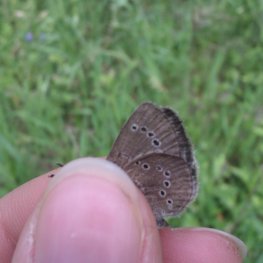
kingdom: Animalia
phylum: Arthropoda
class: Insecta
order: Lepidoptera
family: Lycaenidae
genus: Glaucopsyche
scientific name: Glaucopsyche lygdamus
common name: Silvery Blue
